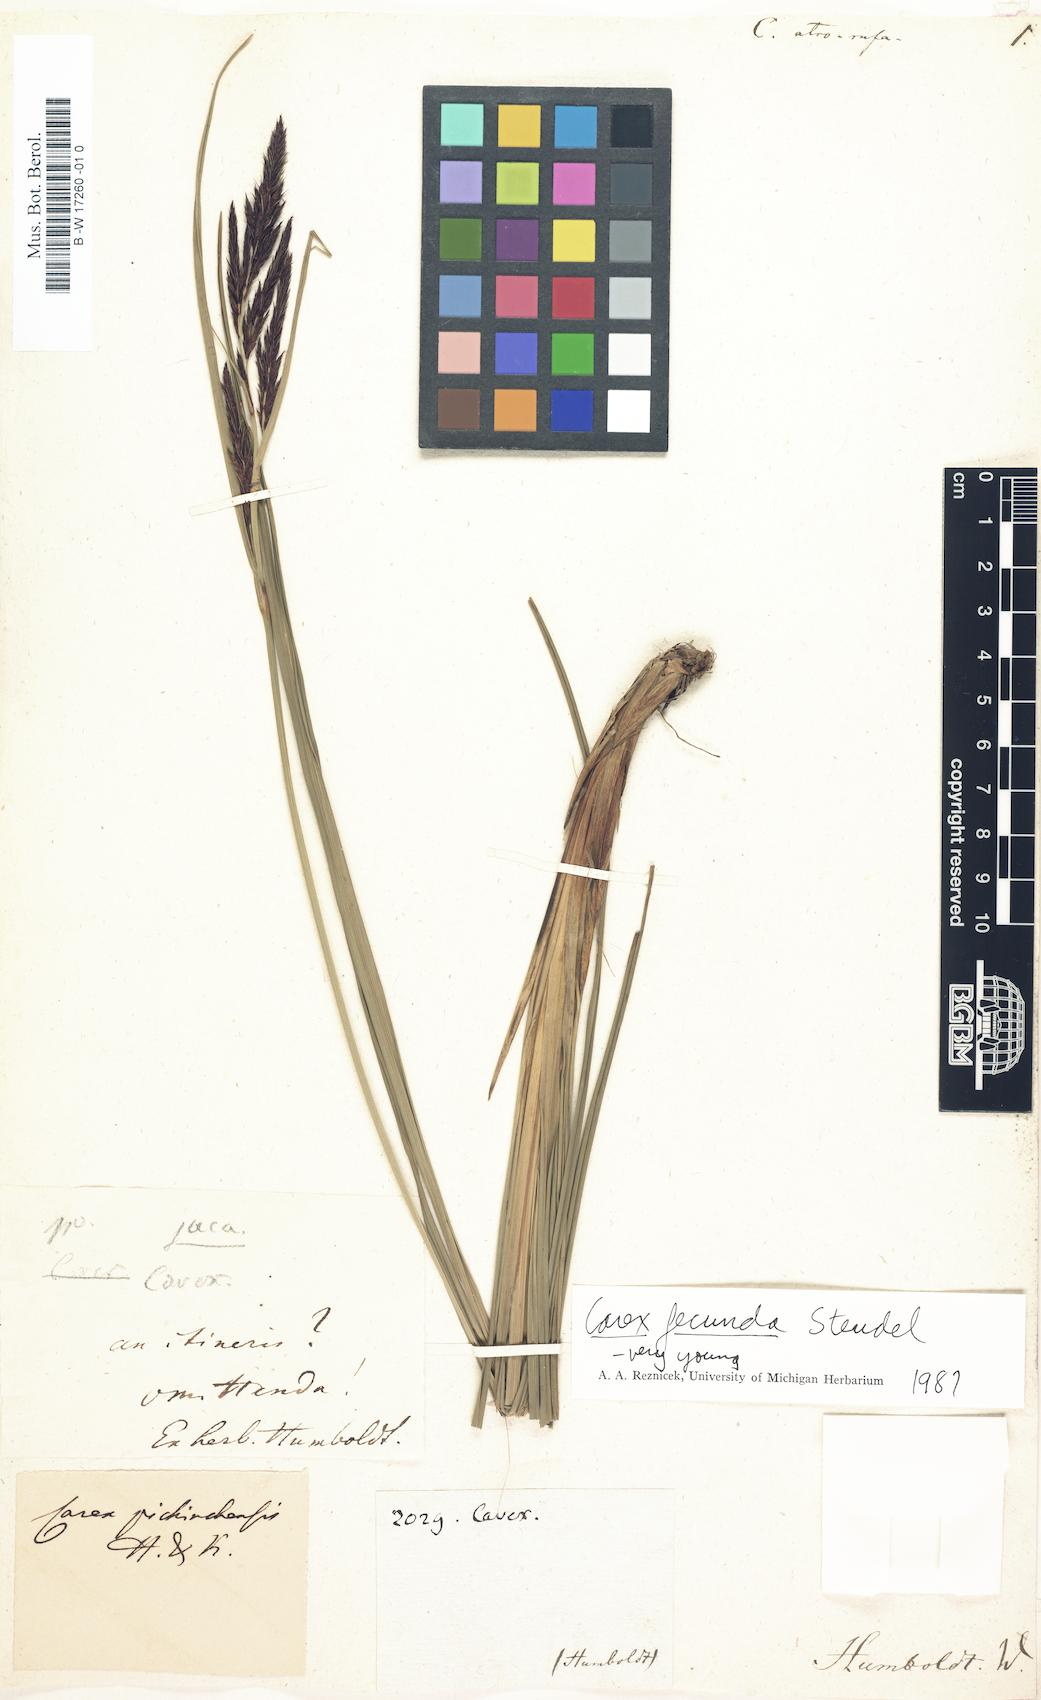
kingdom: Plantae
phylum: Tracheophyta
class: Liliopsida
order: Poales
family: Cyperaceae
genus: Carex
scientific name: Carex pichinchensis
